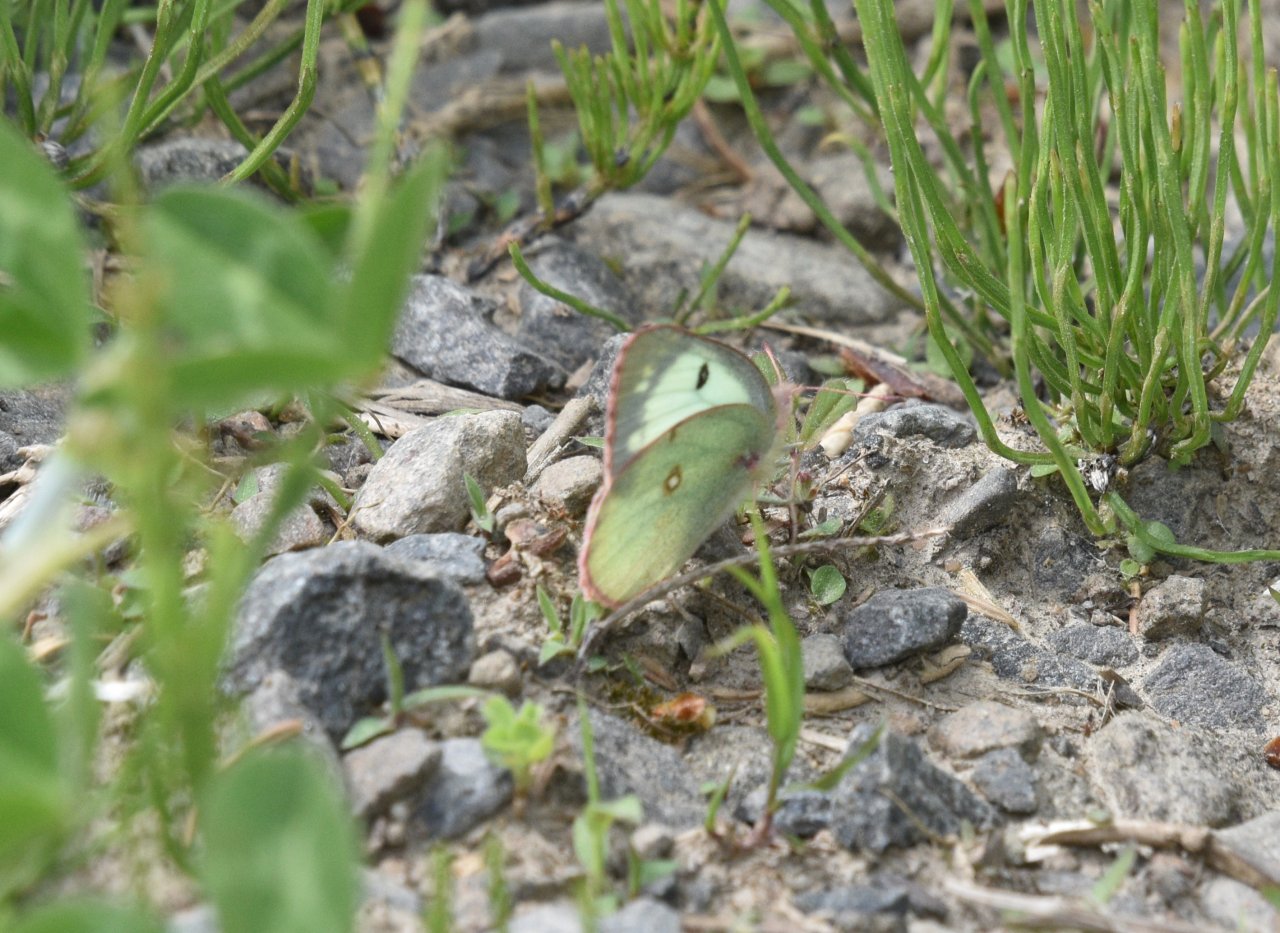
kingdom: Animalia
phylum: Arthropoda
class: Insecta
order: Lepidoptera
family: Pieridae
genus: Colias
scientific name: Colias philodice
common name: Clouded Sulphur
